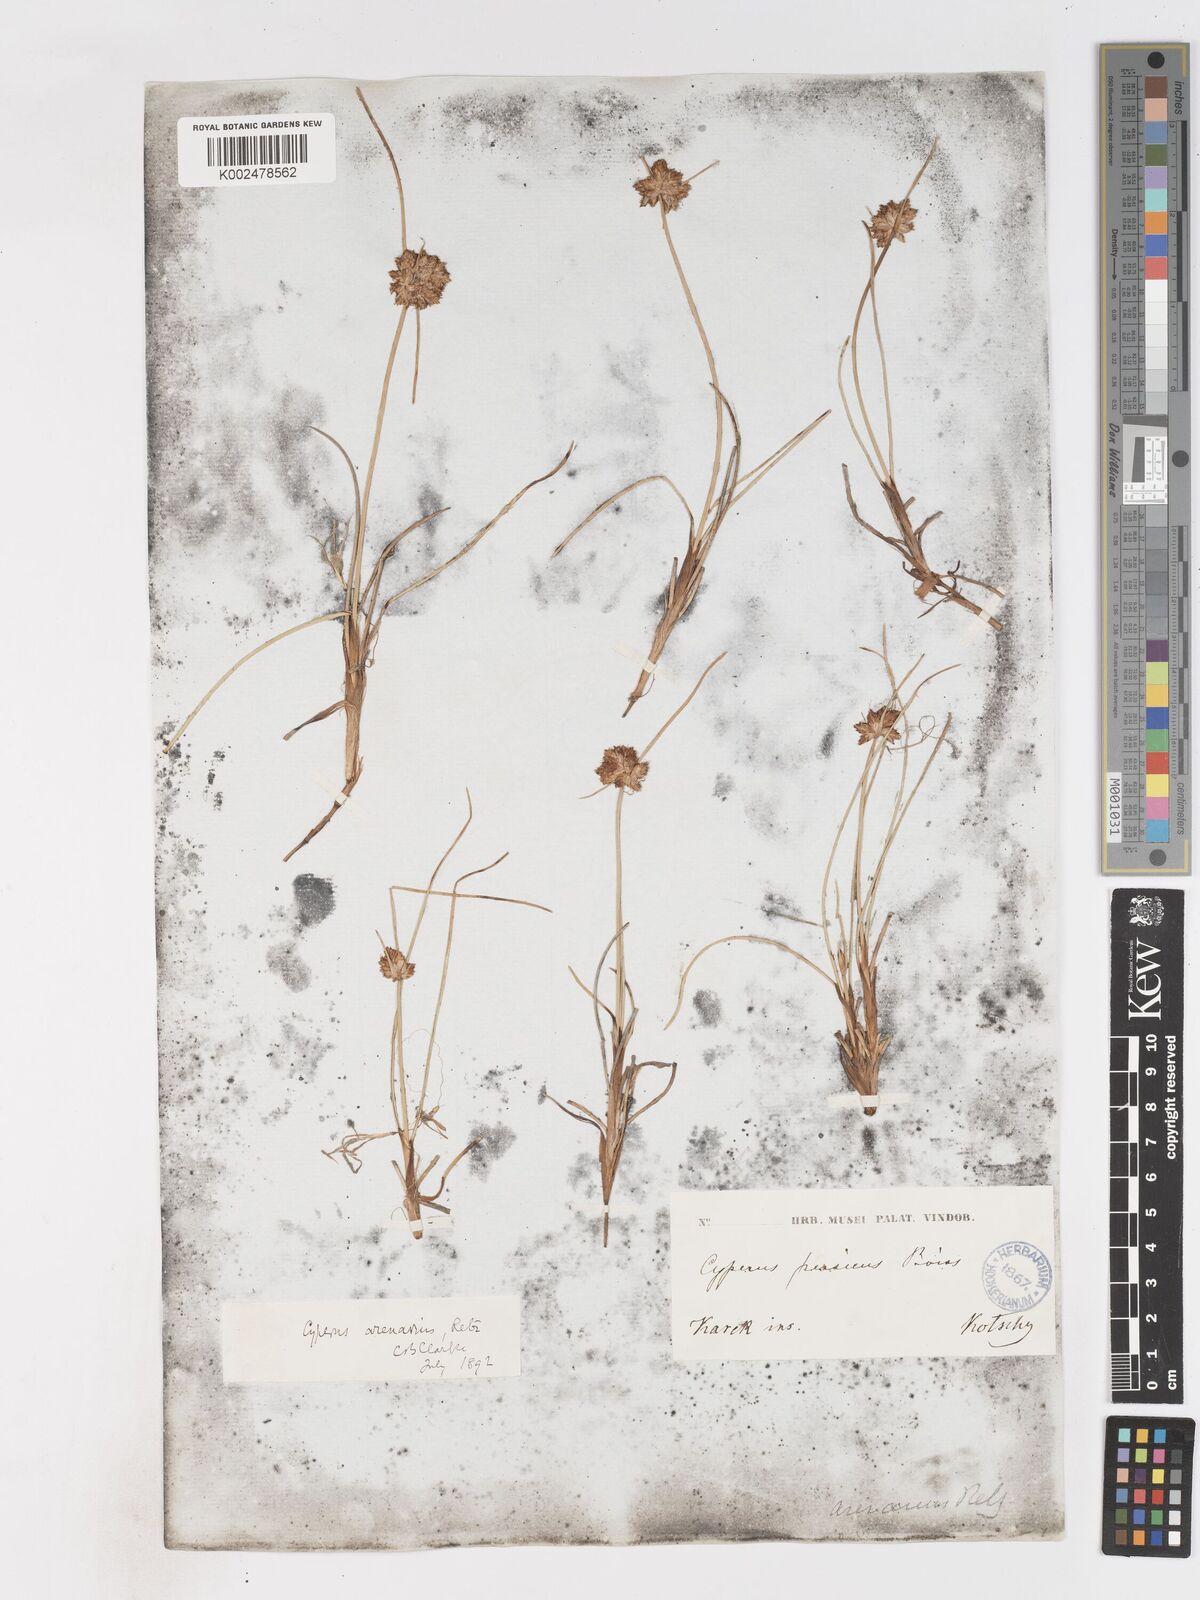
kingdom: Plantae
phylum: Tracheophyta
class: Liliopsida
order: Poales
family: Cyperaceae
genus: Cyperus
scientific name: Cyperus arenarius
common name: Dwarf sedge
